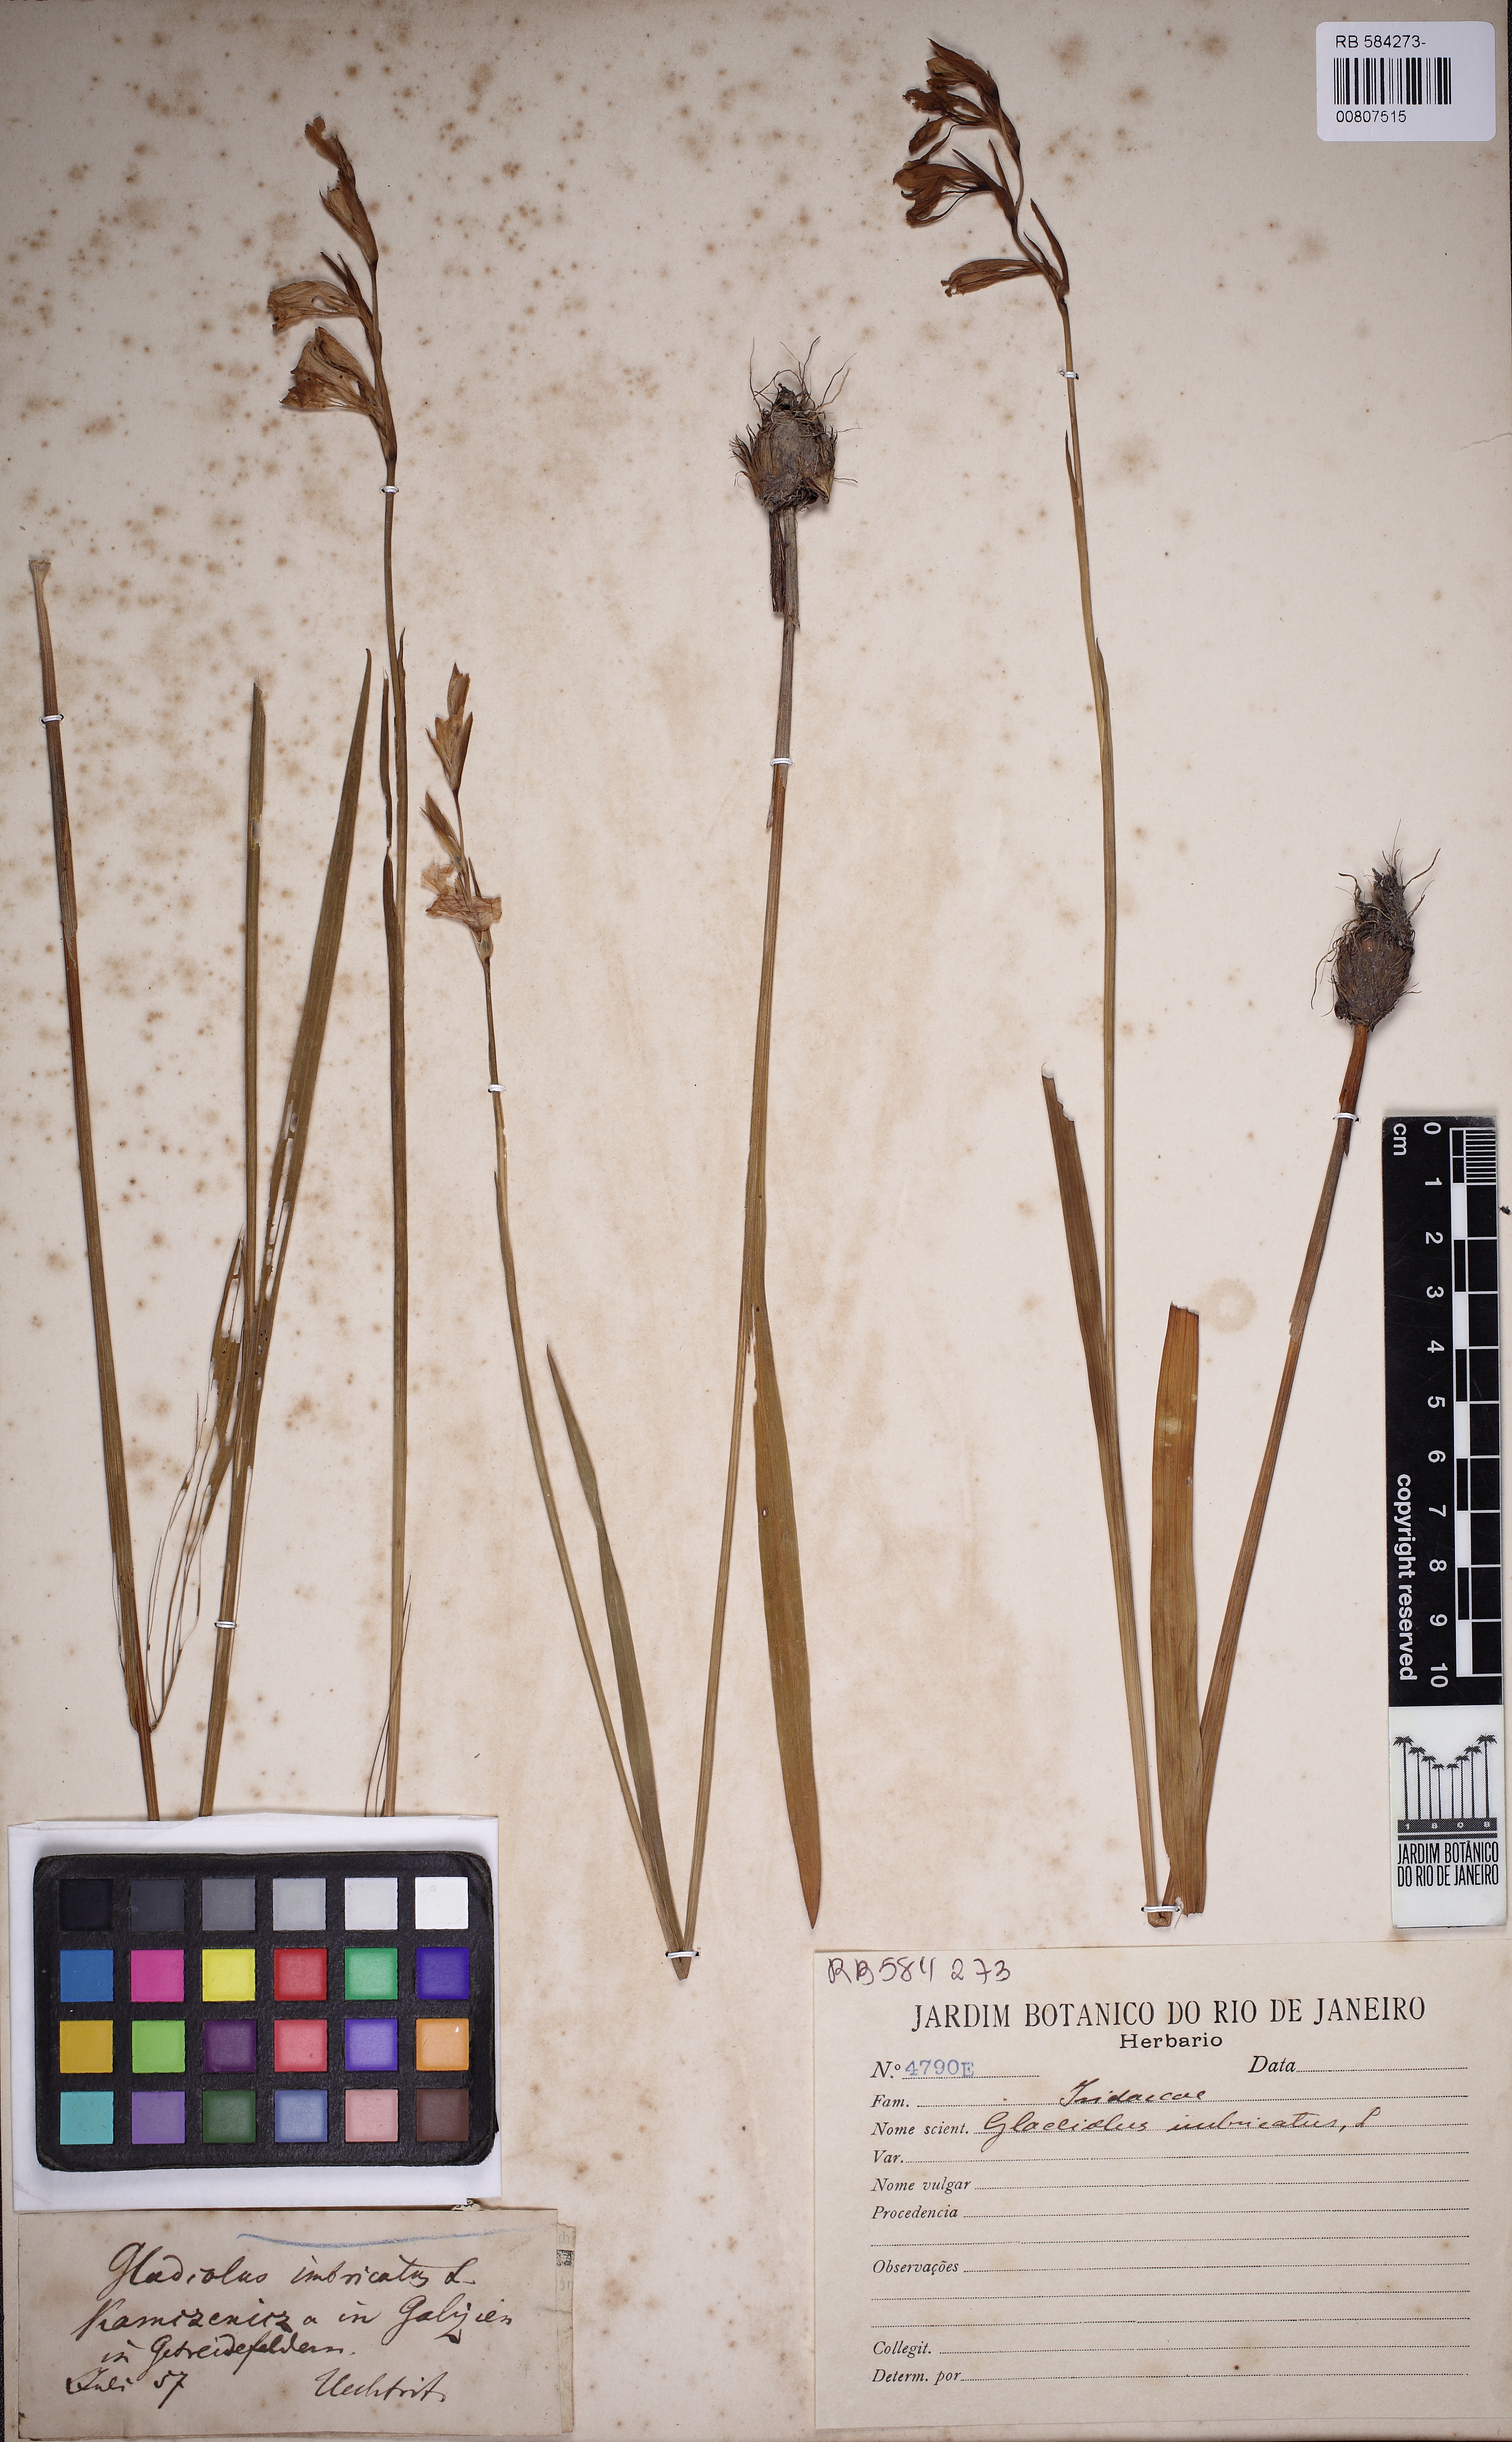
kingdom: Plantae
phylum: Tracheophyta
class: Liliopsida
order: Asparagales
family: Iridaceae
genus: Gladiolus
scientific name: Gladiolus imbricatus
